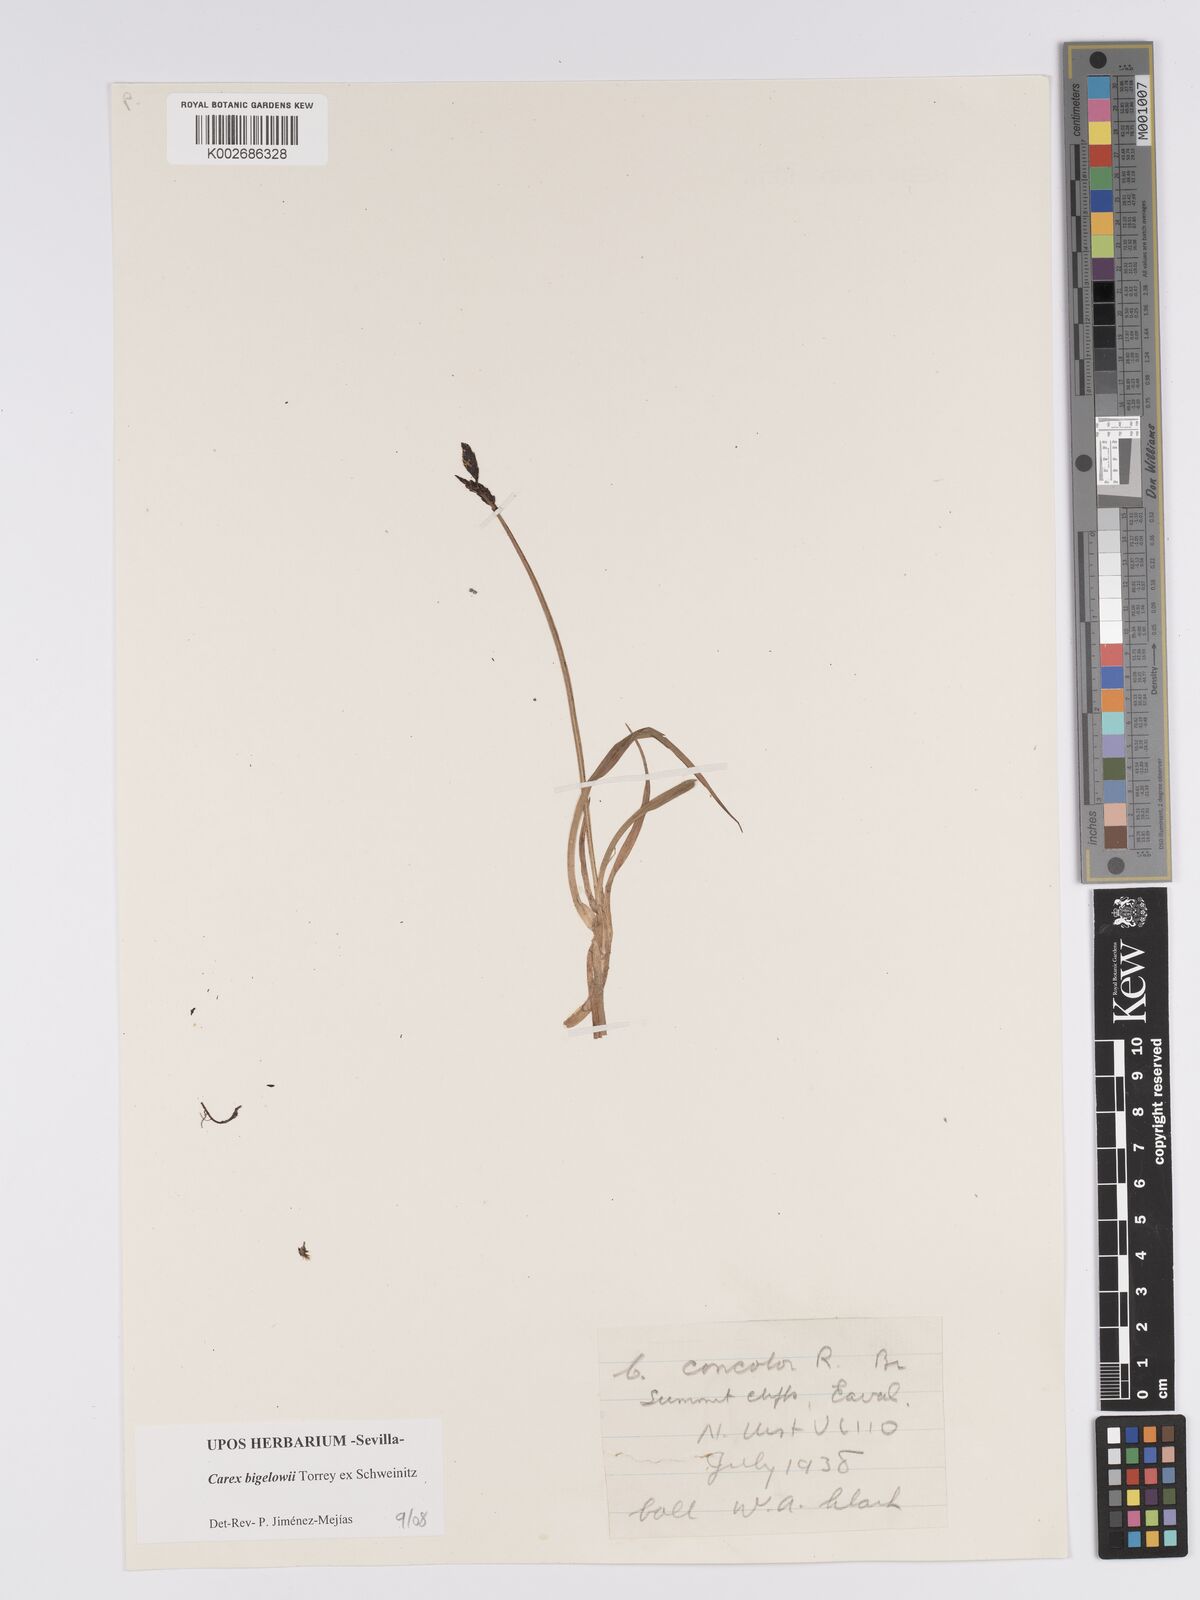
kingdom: Plantae
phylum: Tracheophyta
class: Liliopsida
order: Poales
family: Cyperaceae
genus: Carex
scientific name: Carex bigelowii
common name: Stiff sedge
